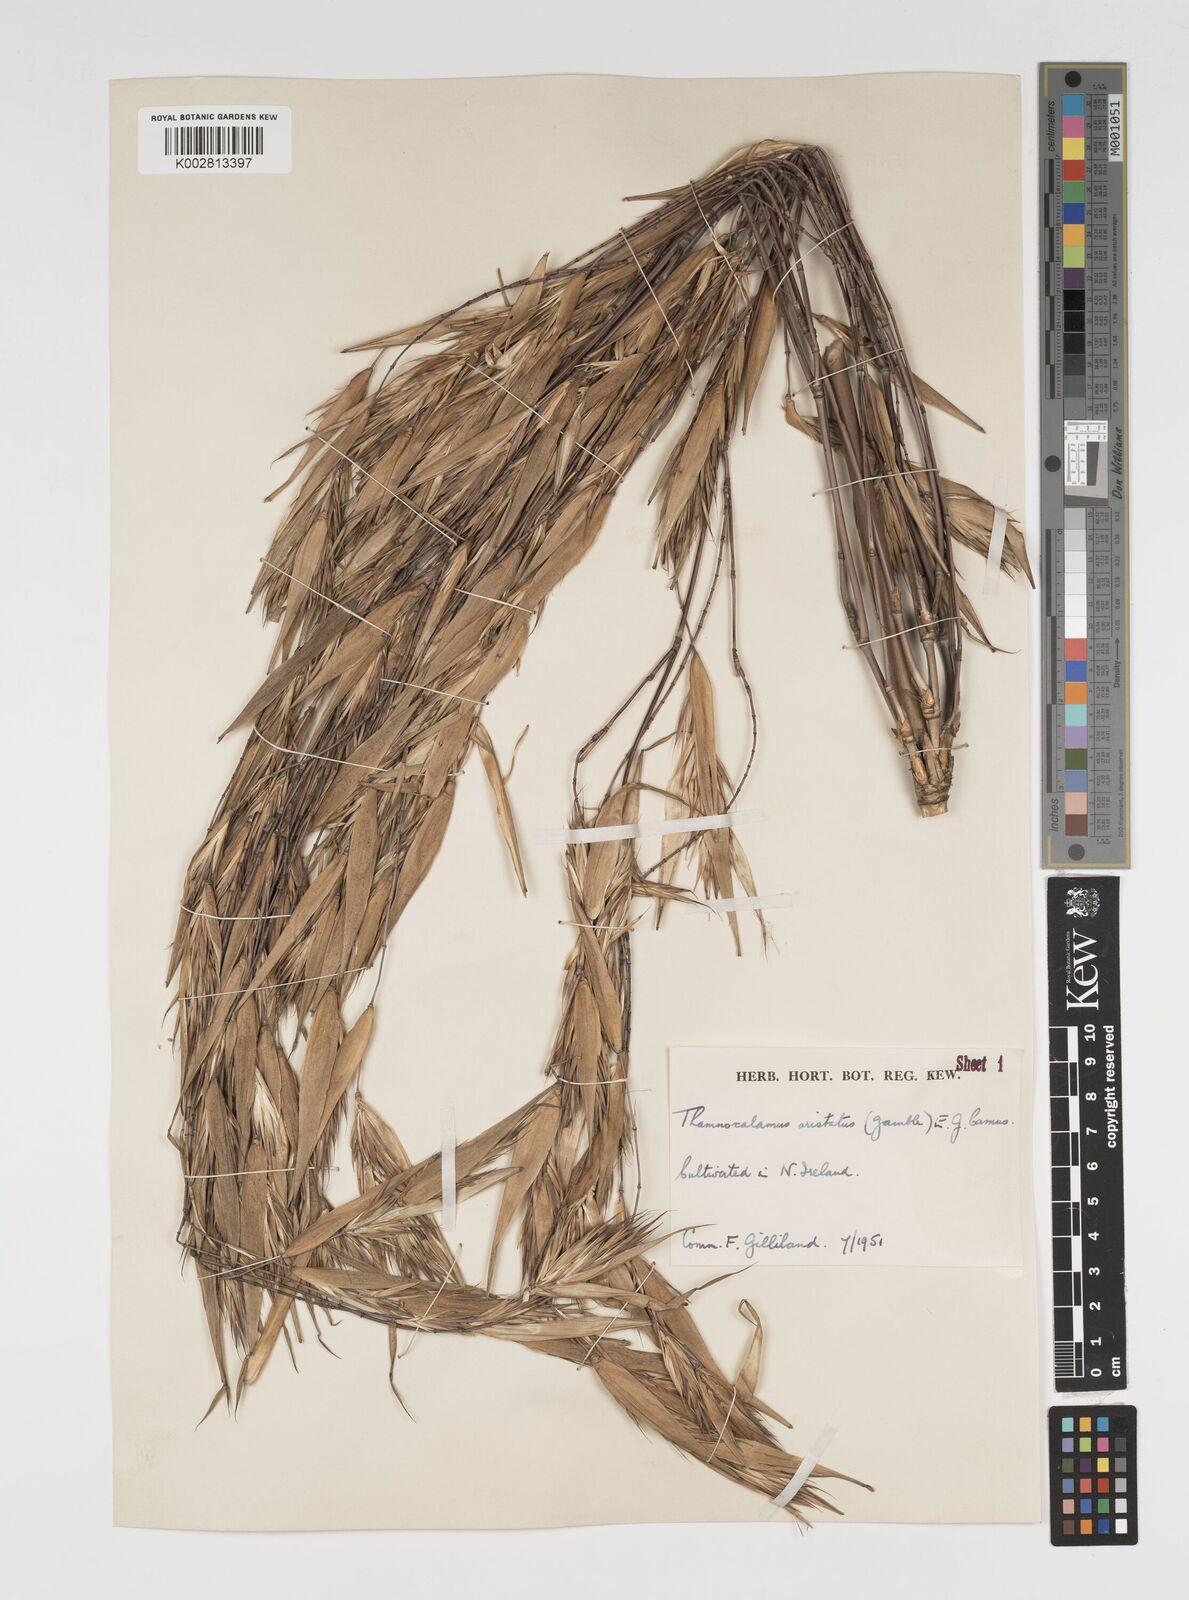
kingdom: Plantae
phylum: Tracheophyta
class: Liliopsida
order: Poales
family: Poaceae
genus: Thamnocalamus
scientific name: Thamnocalamus spathiflorus
